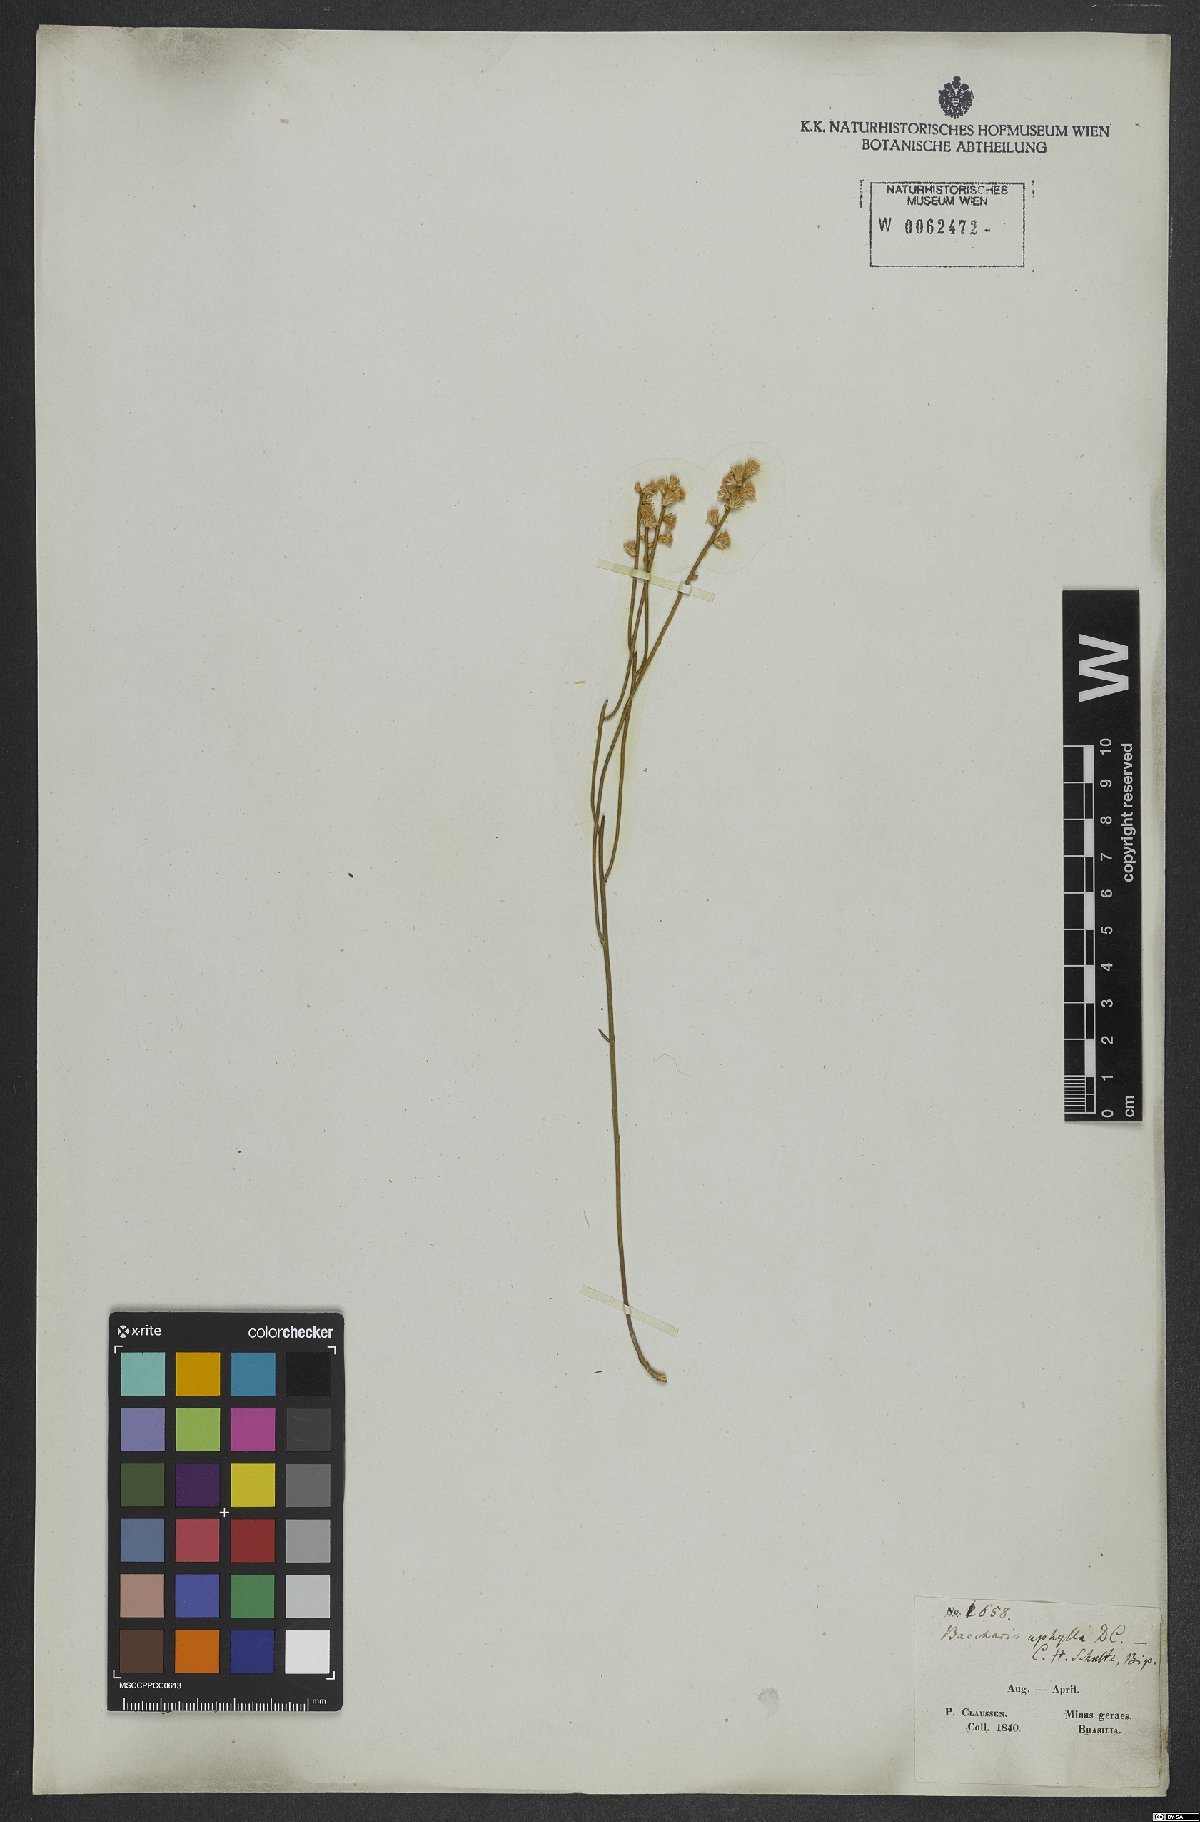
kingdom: Plantae
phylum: Tracheophyta
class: Magnoliopsida
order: Asterales
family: Asteraceae
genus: Baccharis
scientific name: Baccharis aphylla
